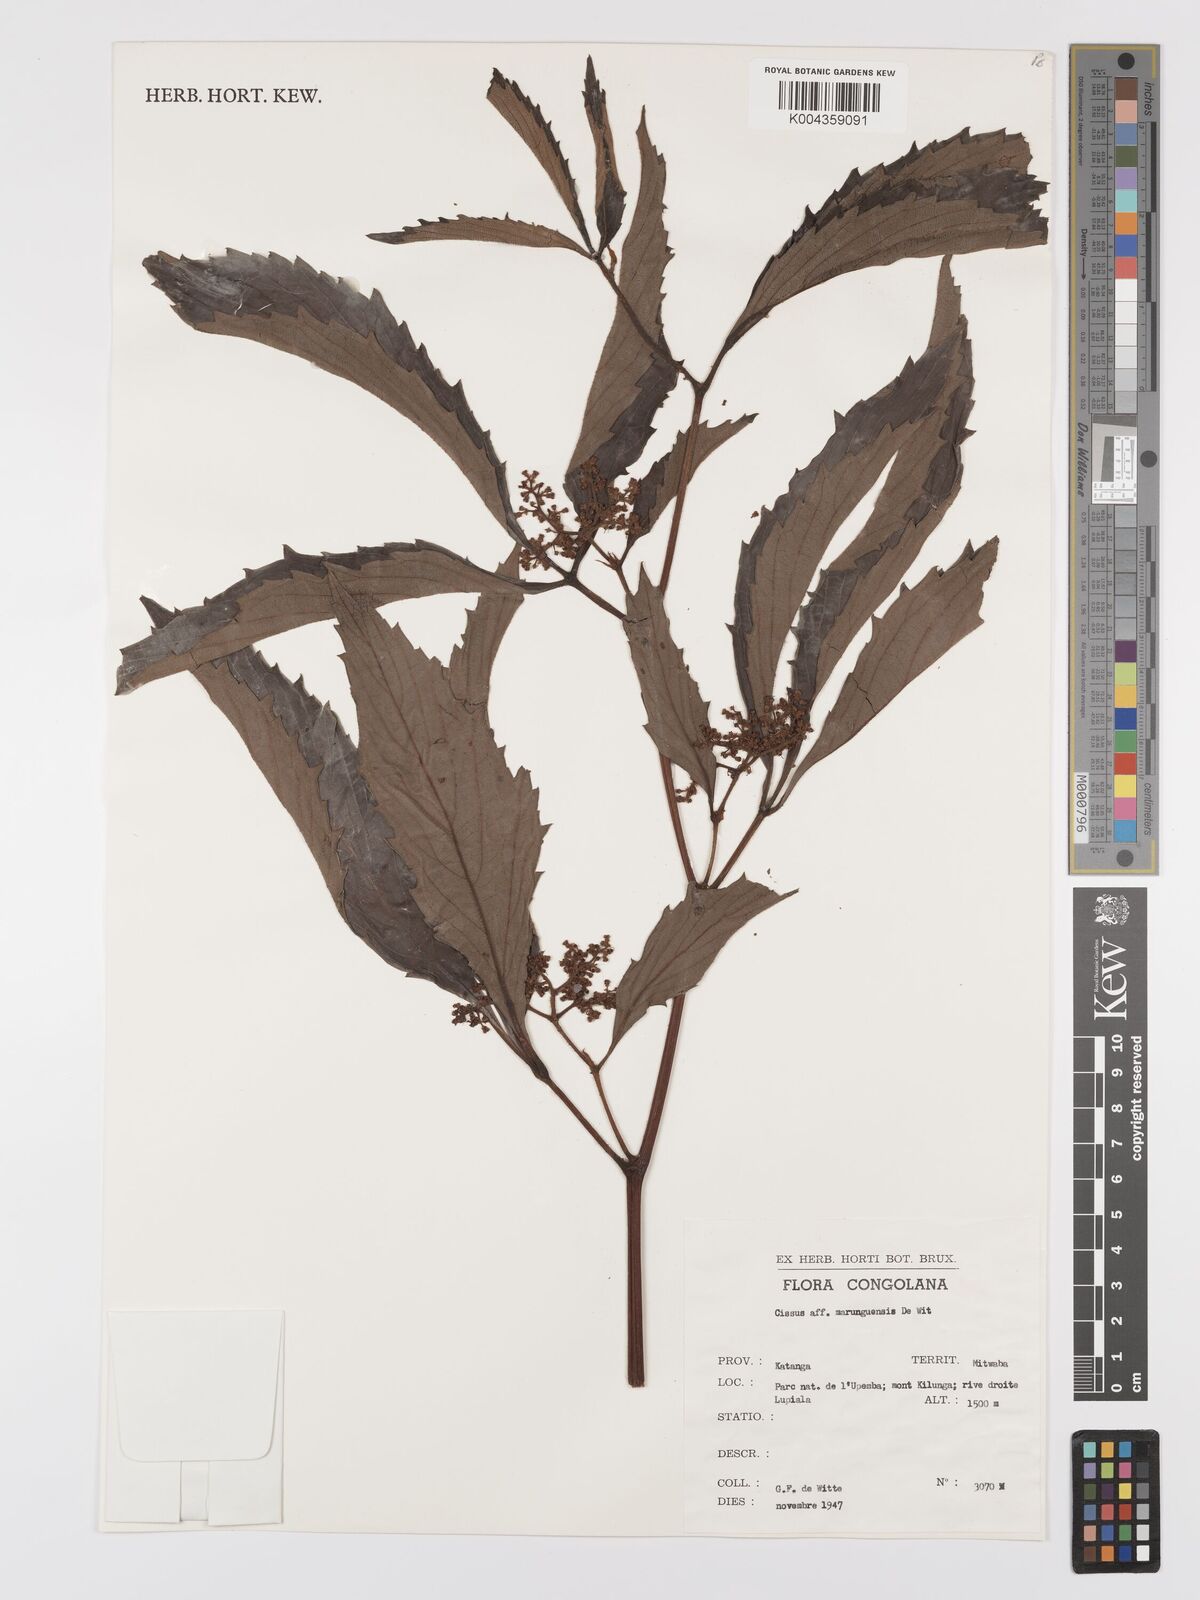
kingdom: Plantae
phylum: Tracheophyta
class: Magnoliopsida
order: Vitales
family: Vitaceae
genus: Cyphostemma
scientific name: Cyphostemma marunguensis
